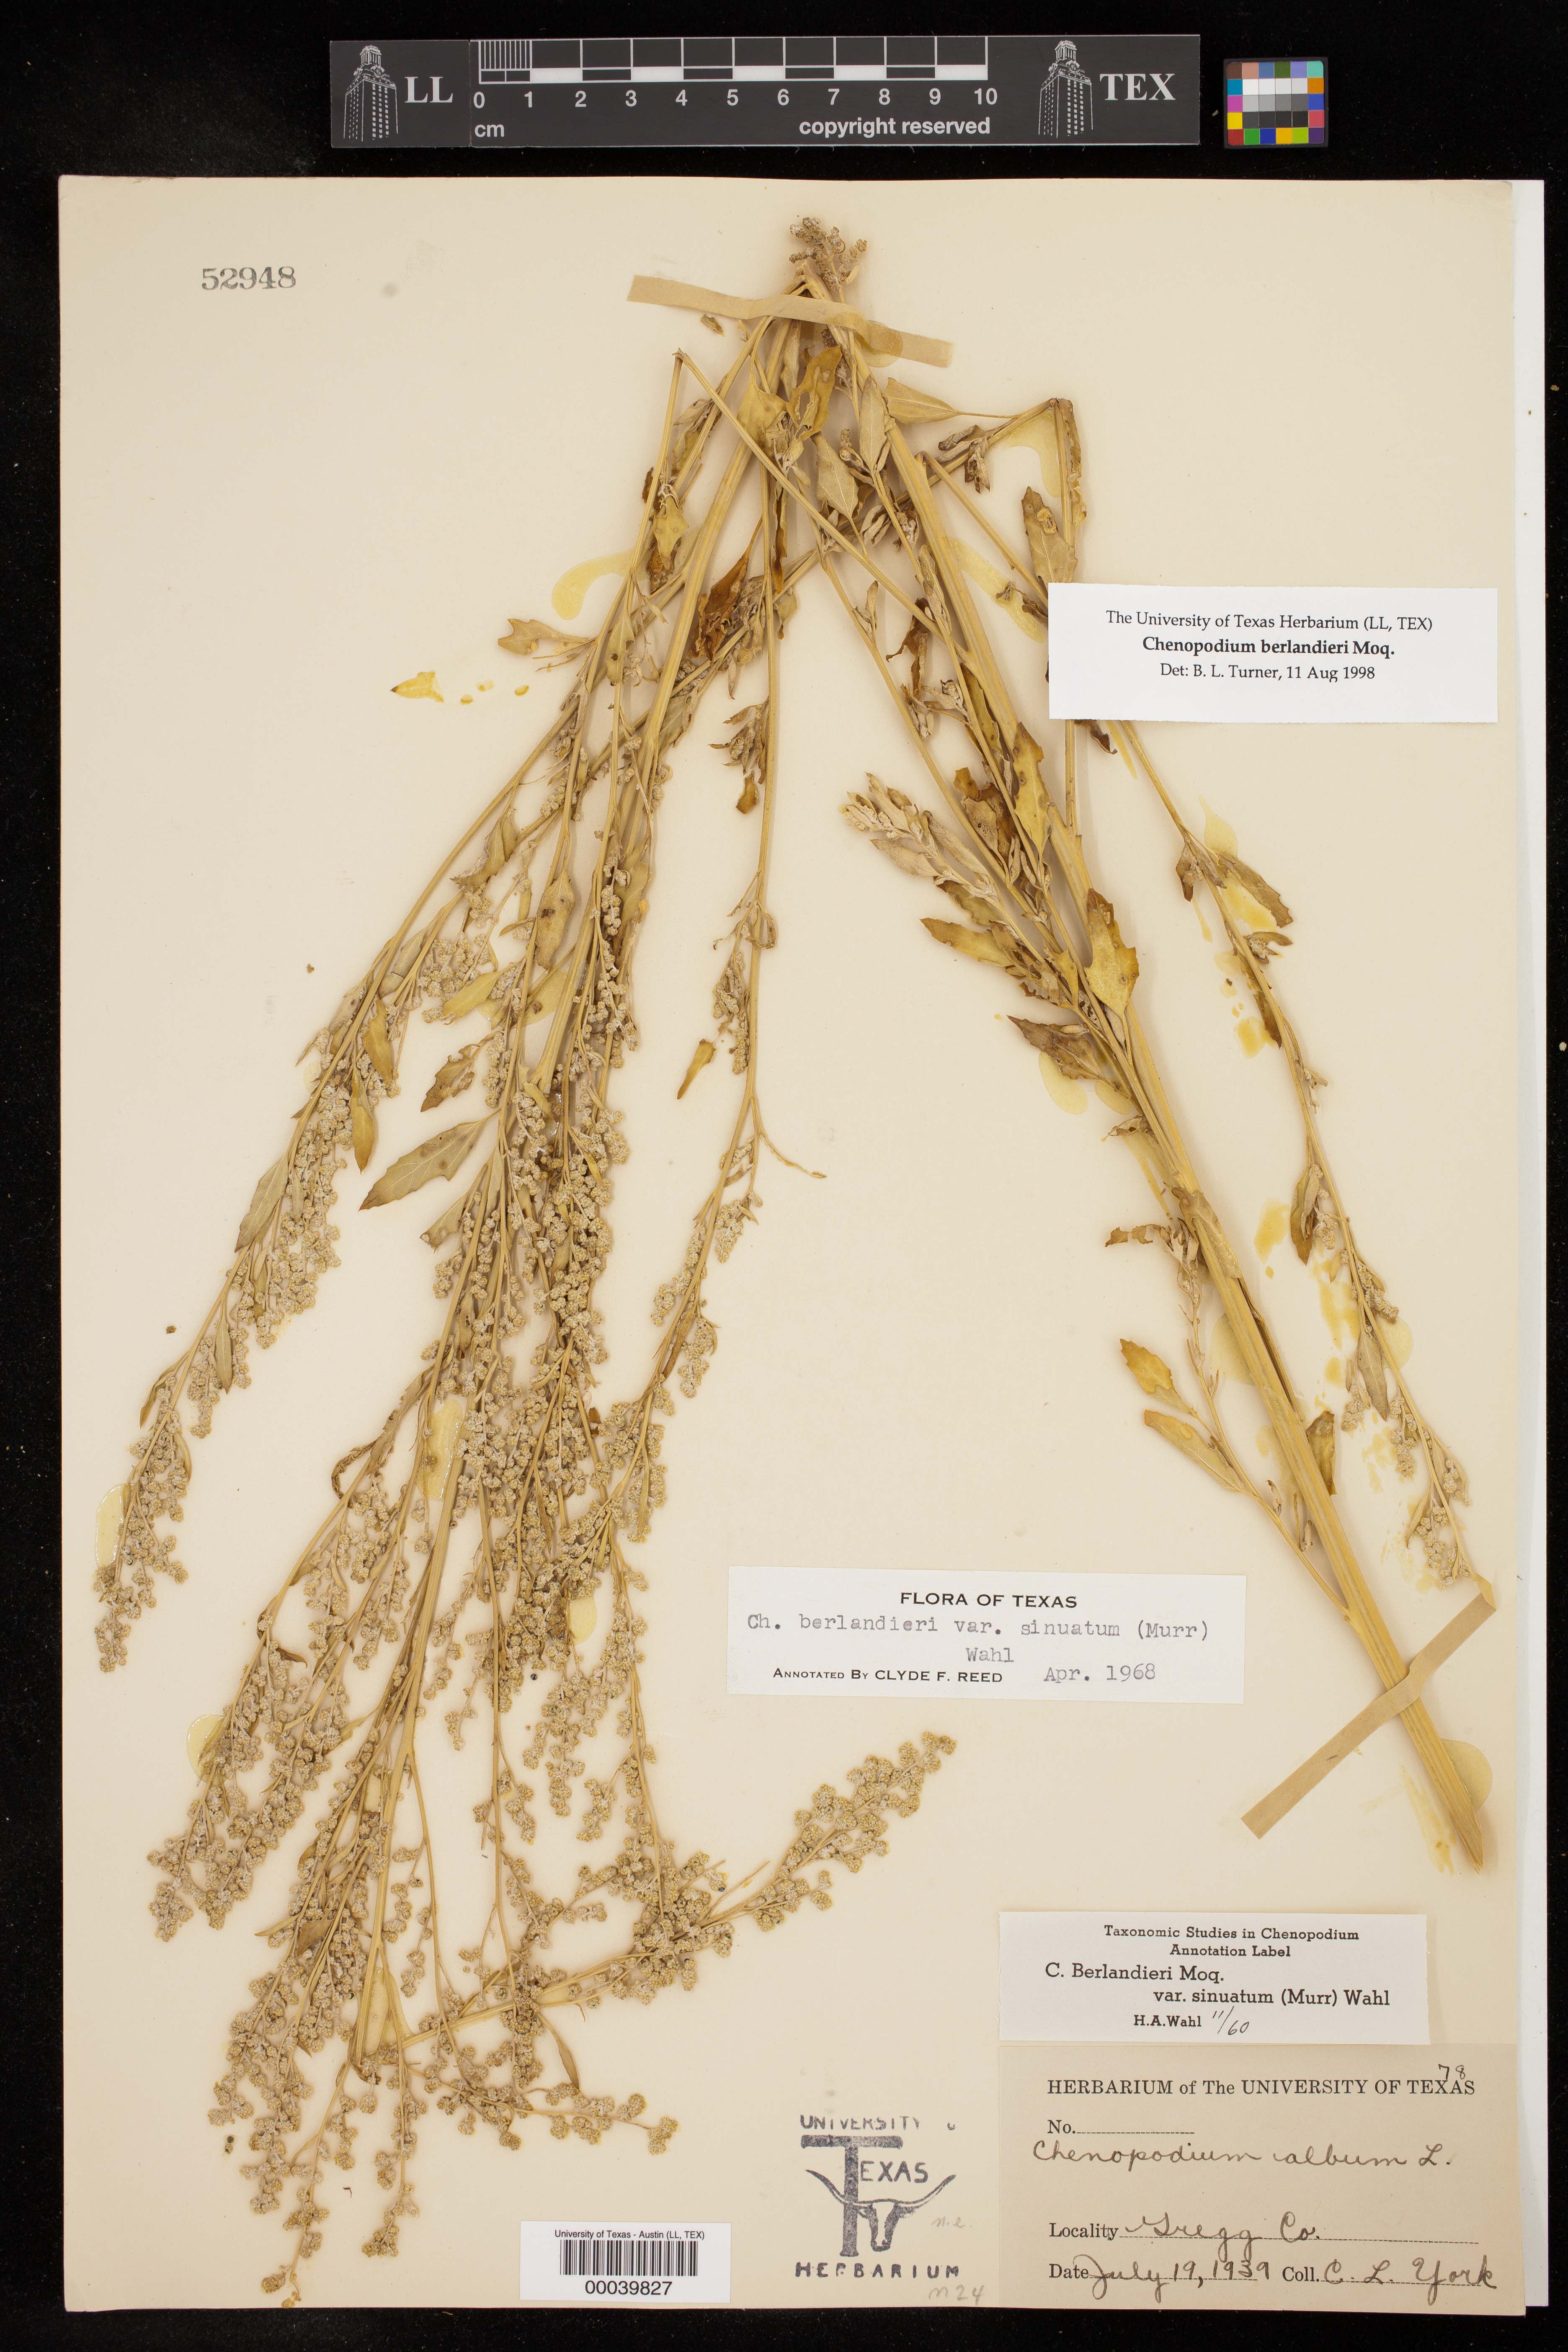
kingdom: Plantae
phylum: Tracheophyta
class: Magnoliopsida
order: Caryophyllales
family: Amaranthaceae
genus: Chenopodium
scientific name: Chenopodium berlandieri
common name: Pit-seed goosefoot
